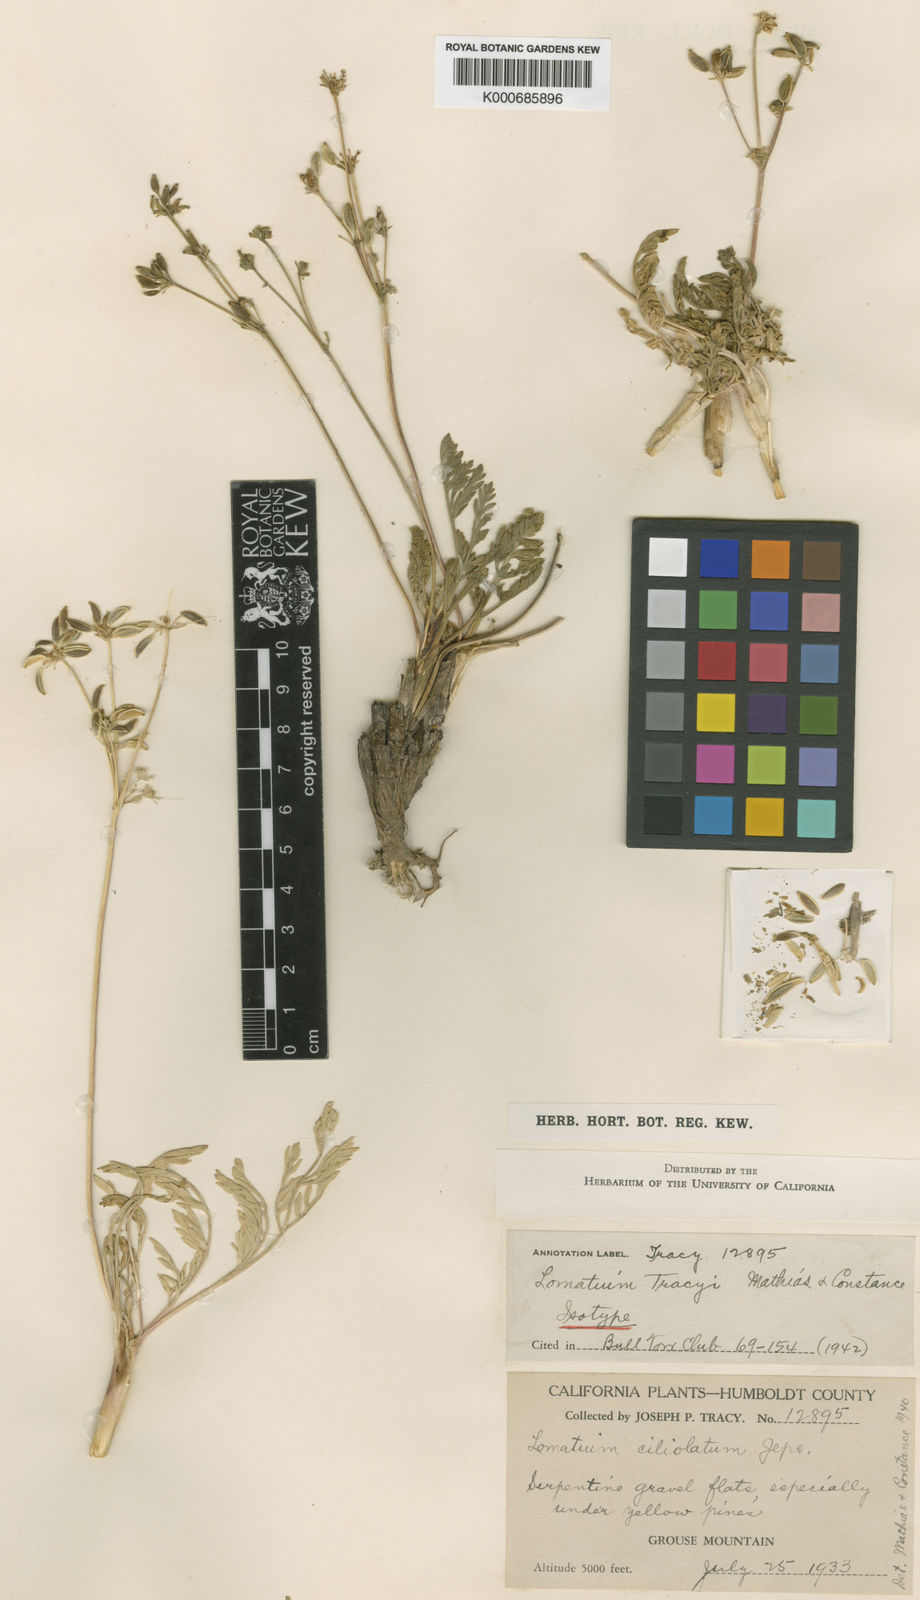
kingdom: Plantae
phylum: Tracheophyta
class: Magnoliopsida
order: Apiales
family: Apiaceae
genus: Lomatium
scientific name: Lomatium tracyi
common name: Tracy's desert-parsley
